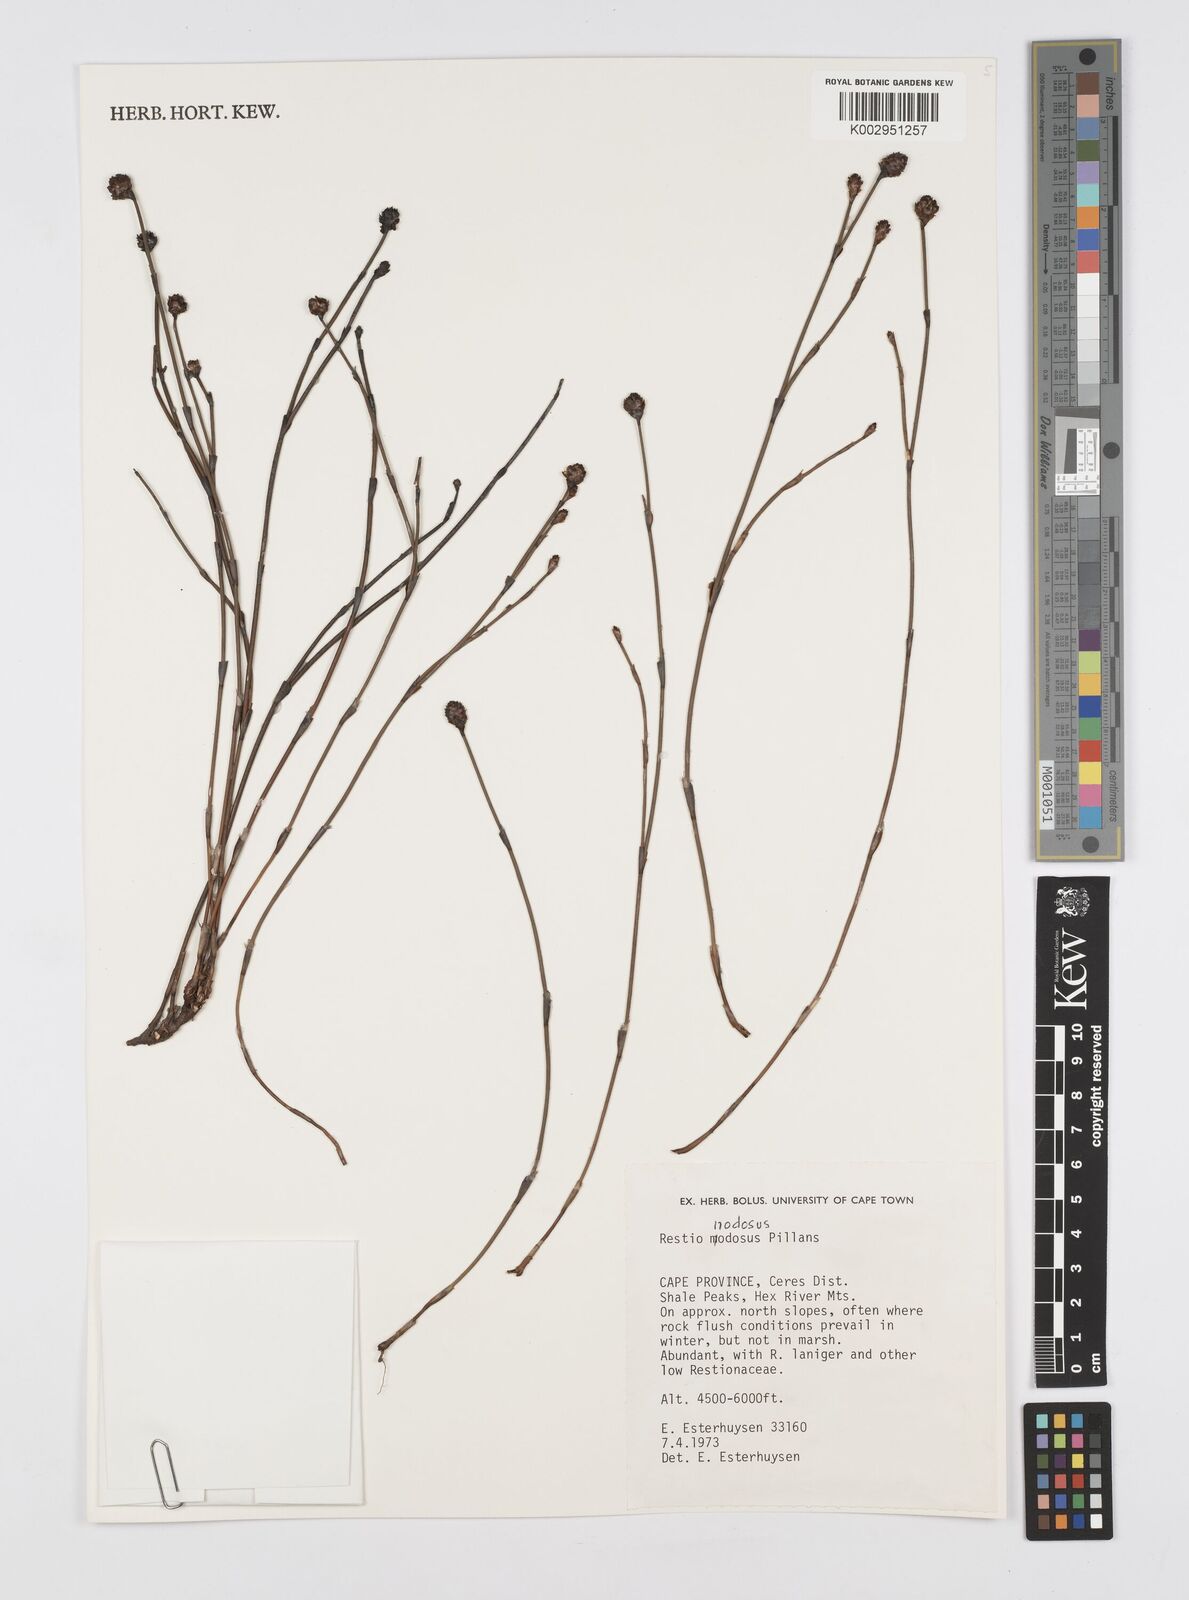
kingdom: Plantae
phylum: Tracheophyta
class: Liliopsida
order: Poales
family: Restionaceae
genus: Restio
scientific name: Restio nodosus
